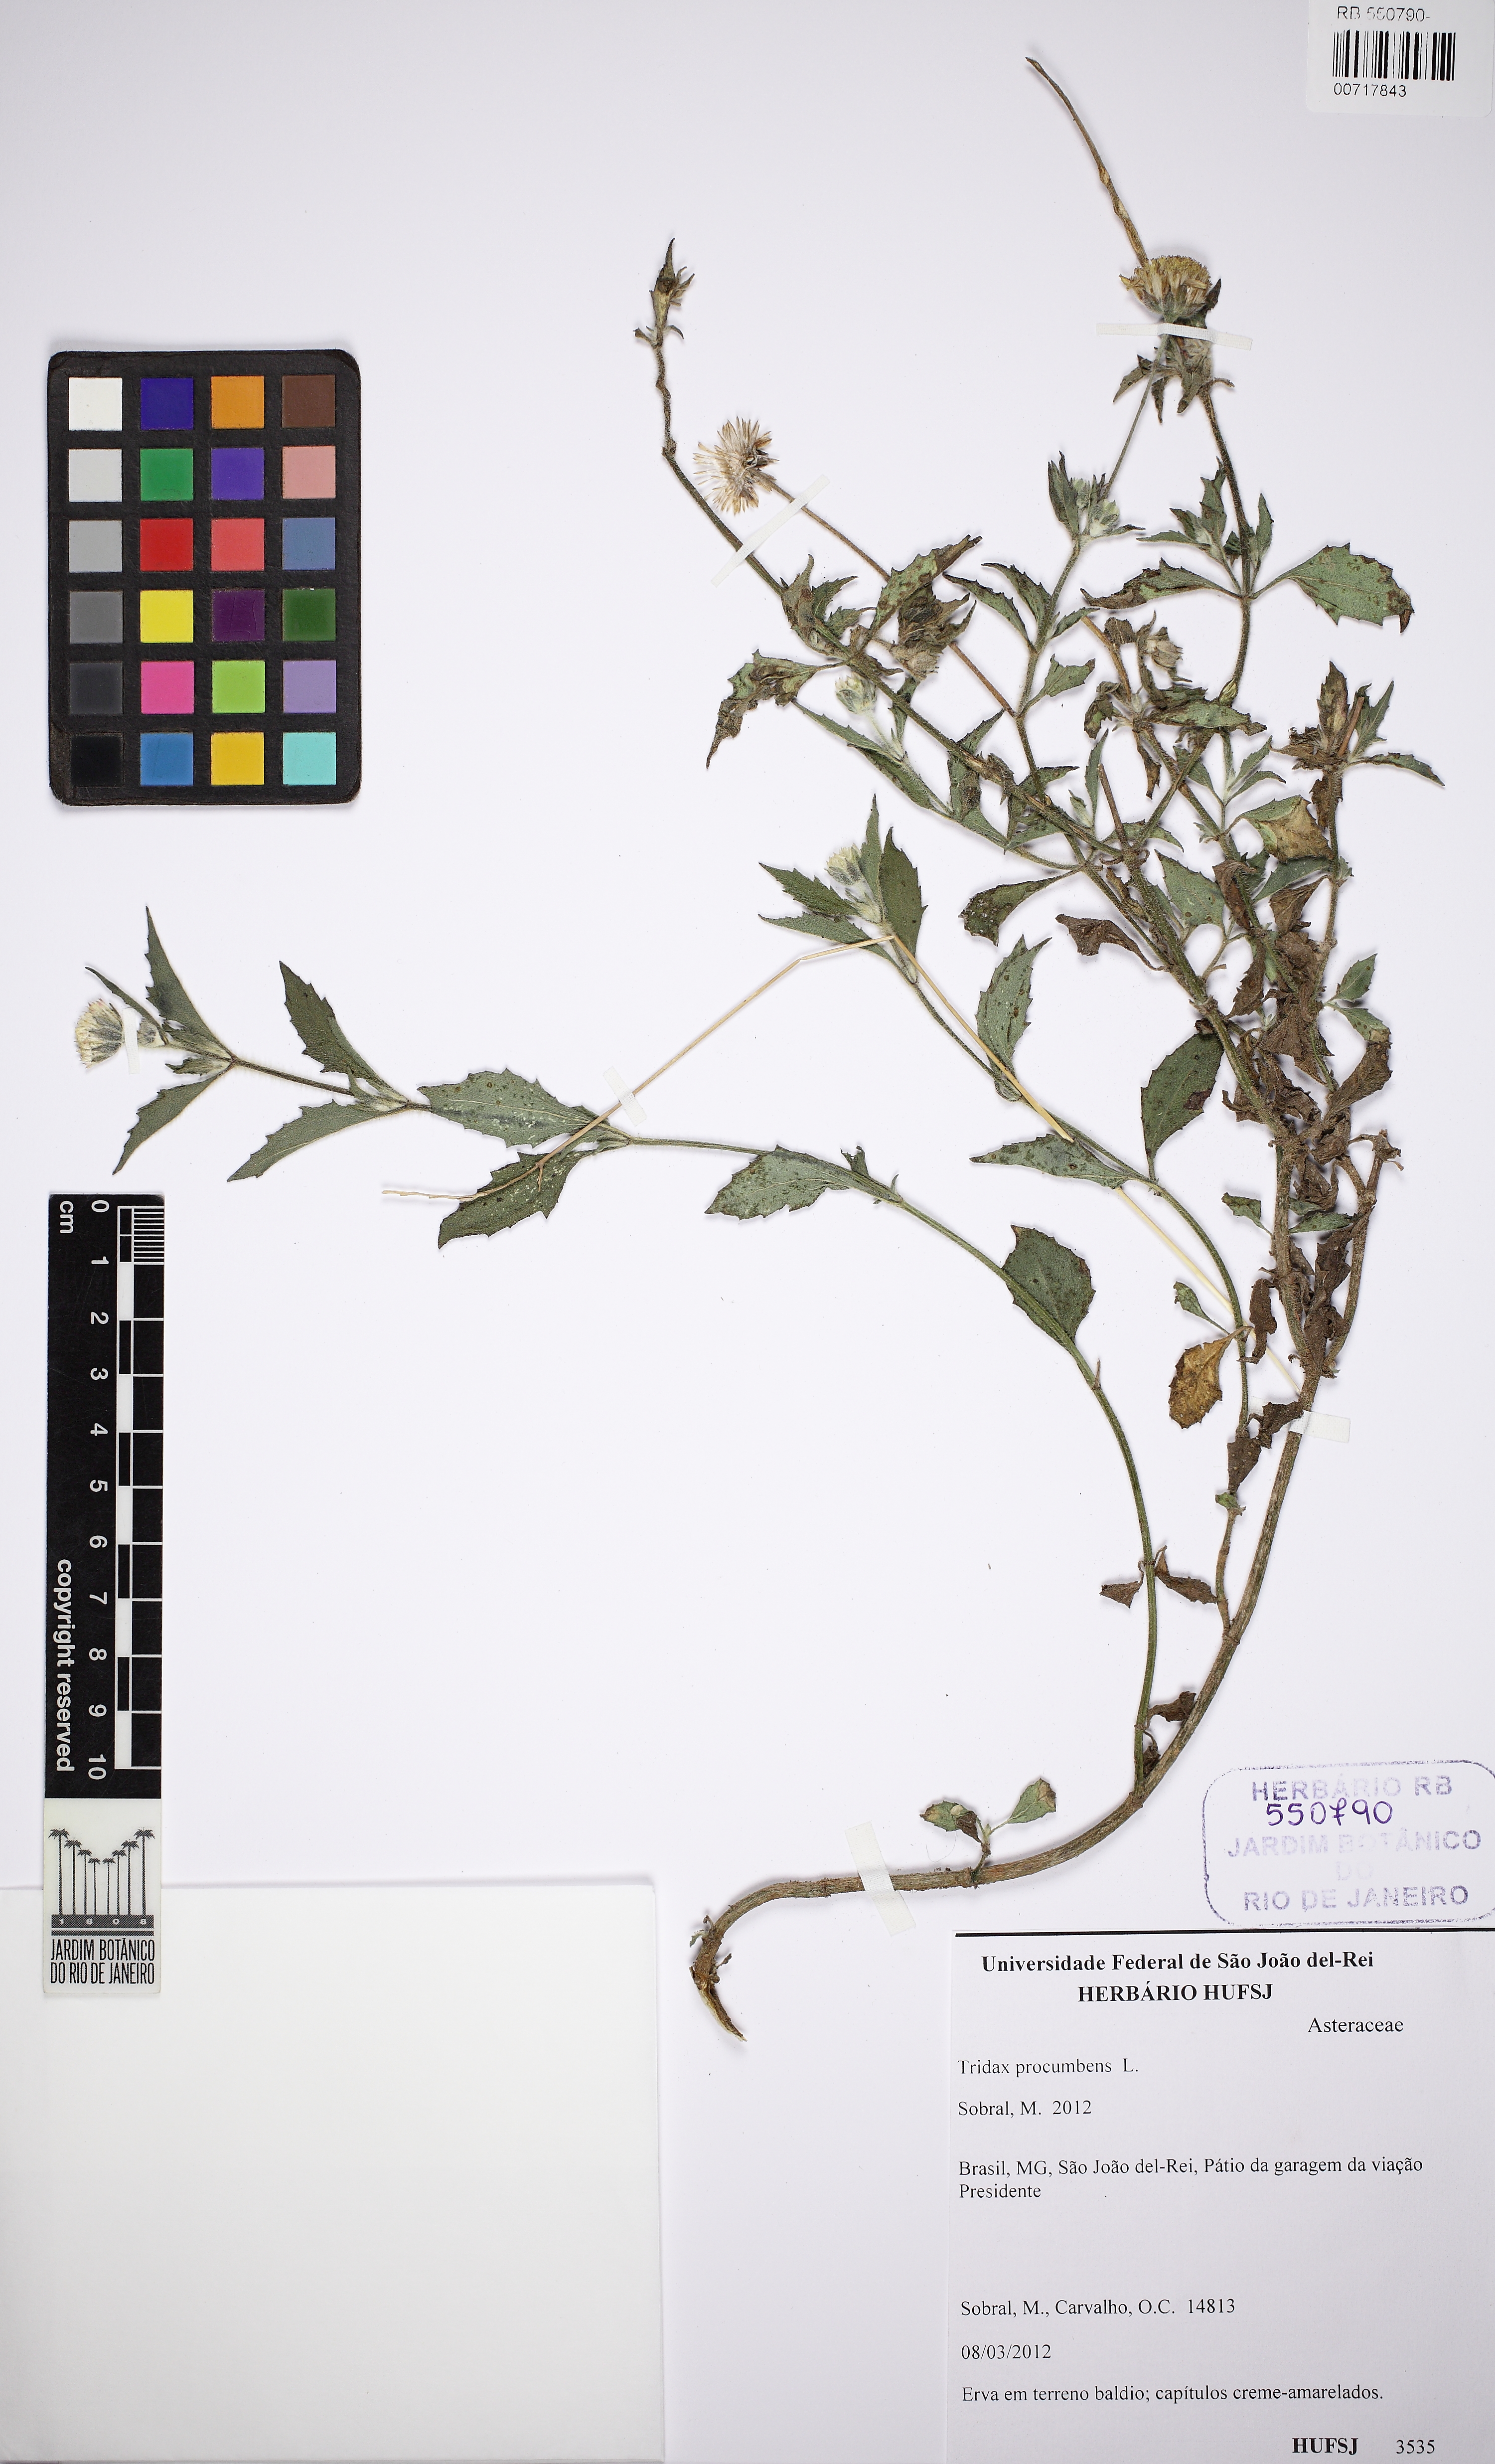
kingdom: Plantae
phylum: Tracheophyta
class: Magnoliopsida
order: Asterales
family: Asteraceae
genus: Tridax
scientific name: Tridax procumbens
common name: Coatbuttons
